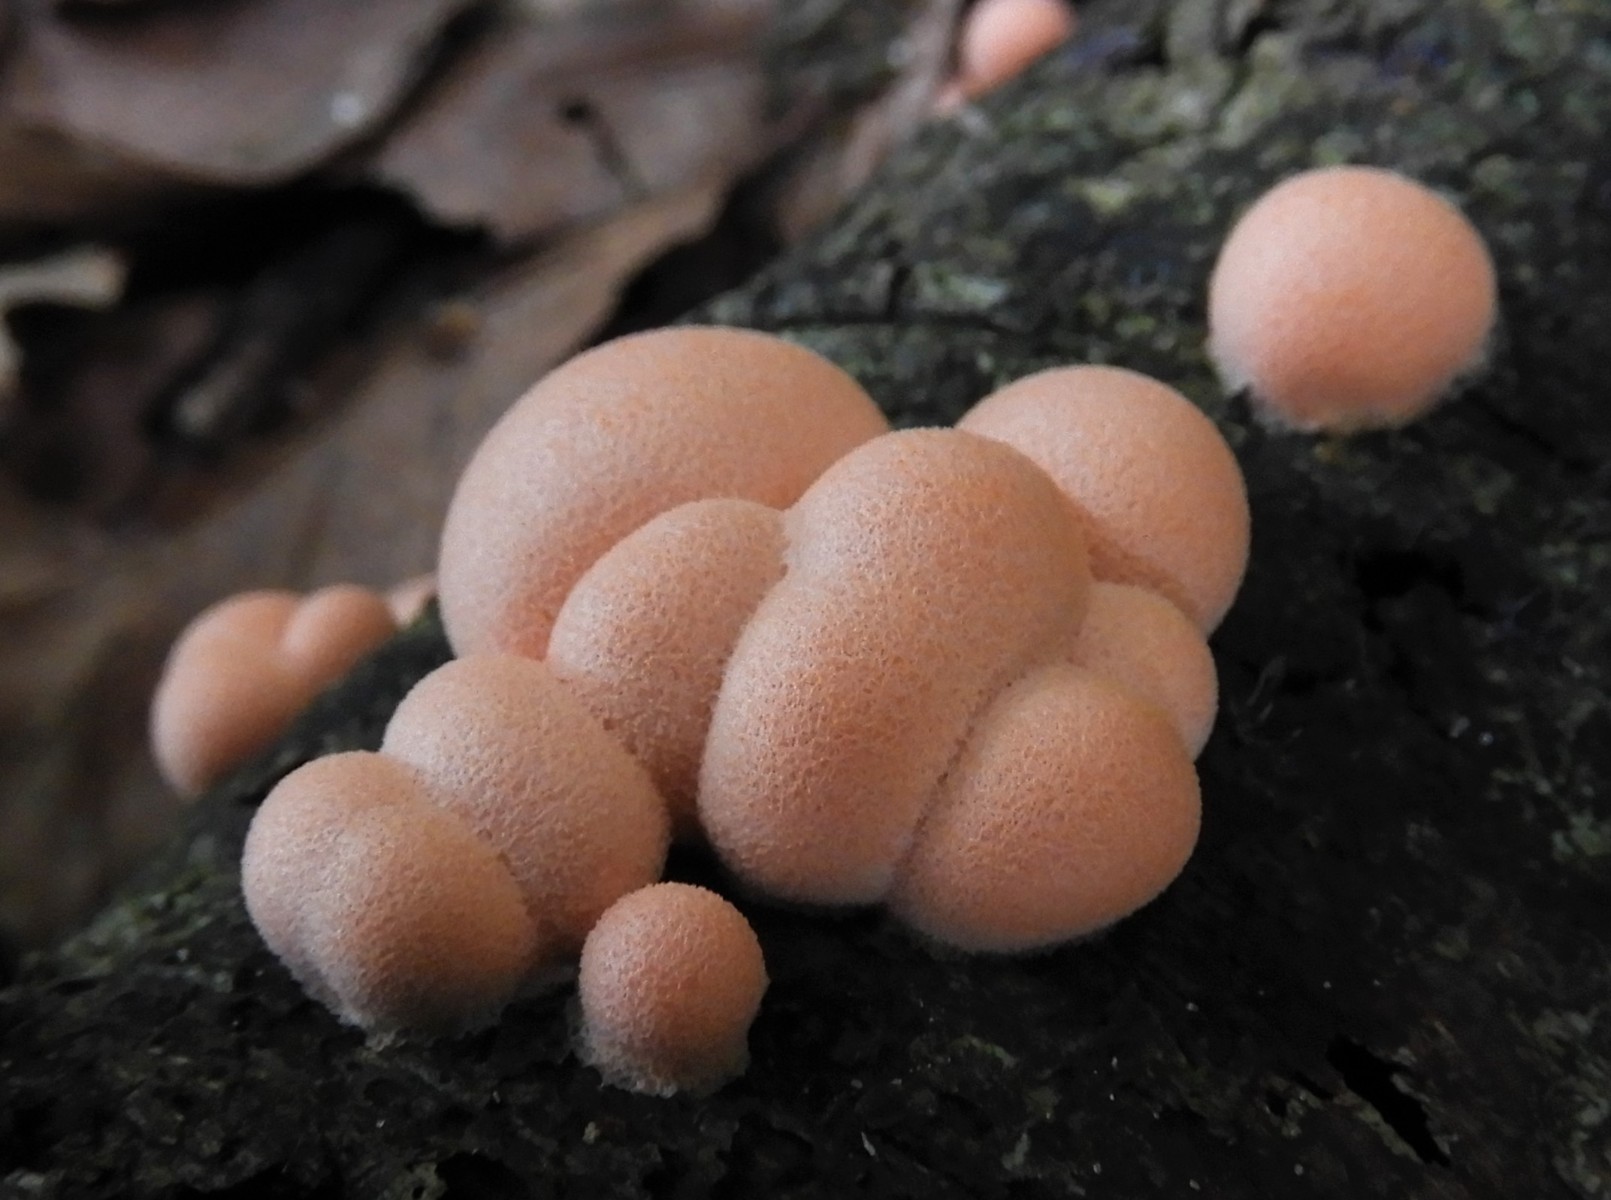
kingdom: Protozoa
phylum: Mycetozoa
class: Myxomycetes
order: Cribrariales
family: Tubiferaceae
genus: Lycogala
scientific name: Lycogala epidendrum
